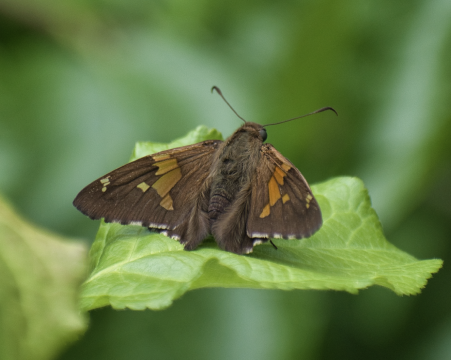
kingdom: Animalia
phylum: Arthropoda
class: Insecta
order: Lepidoptera
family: Hesperiidae
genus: Epargyreus
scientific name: Epargyreus clarus
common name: Silver-spotted Skipper
